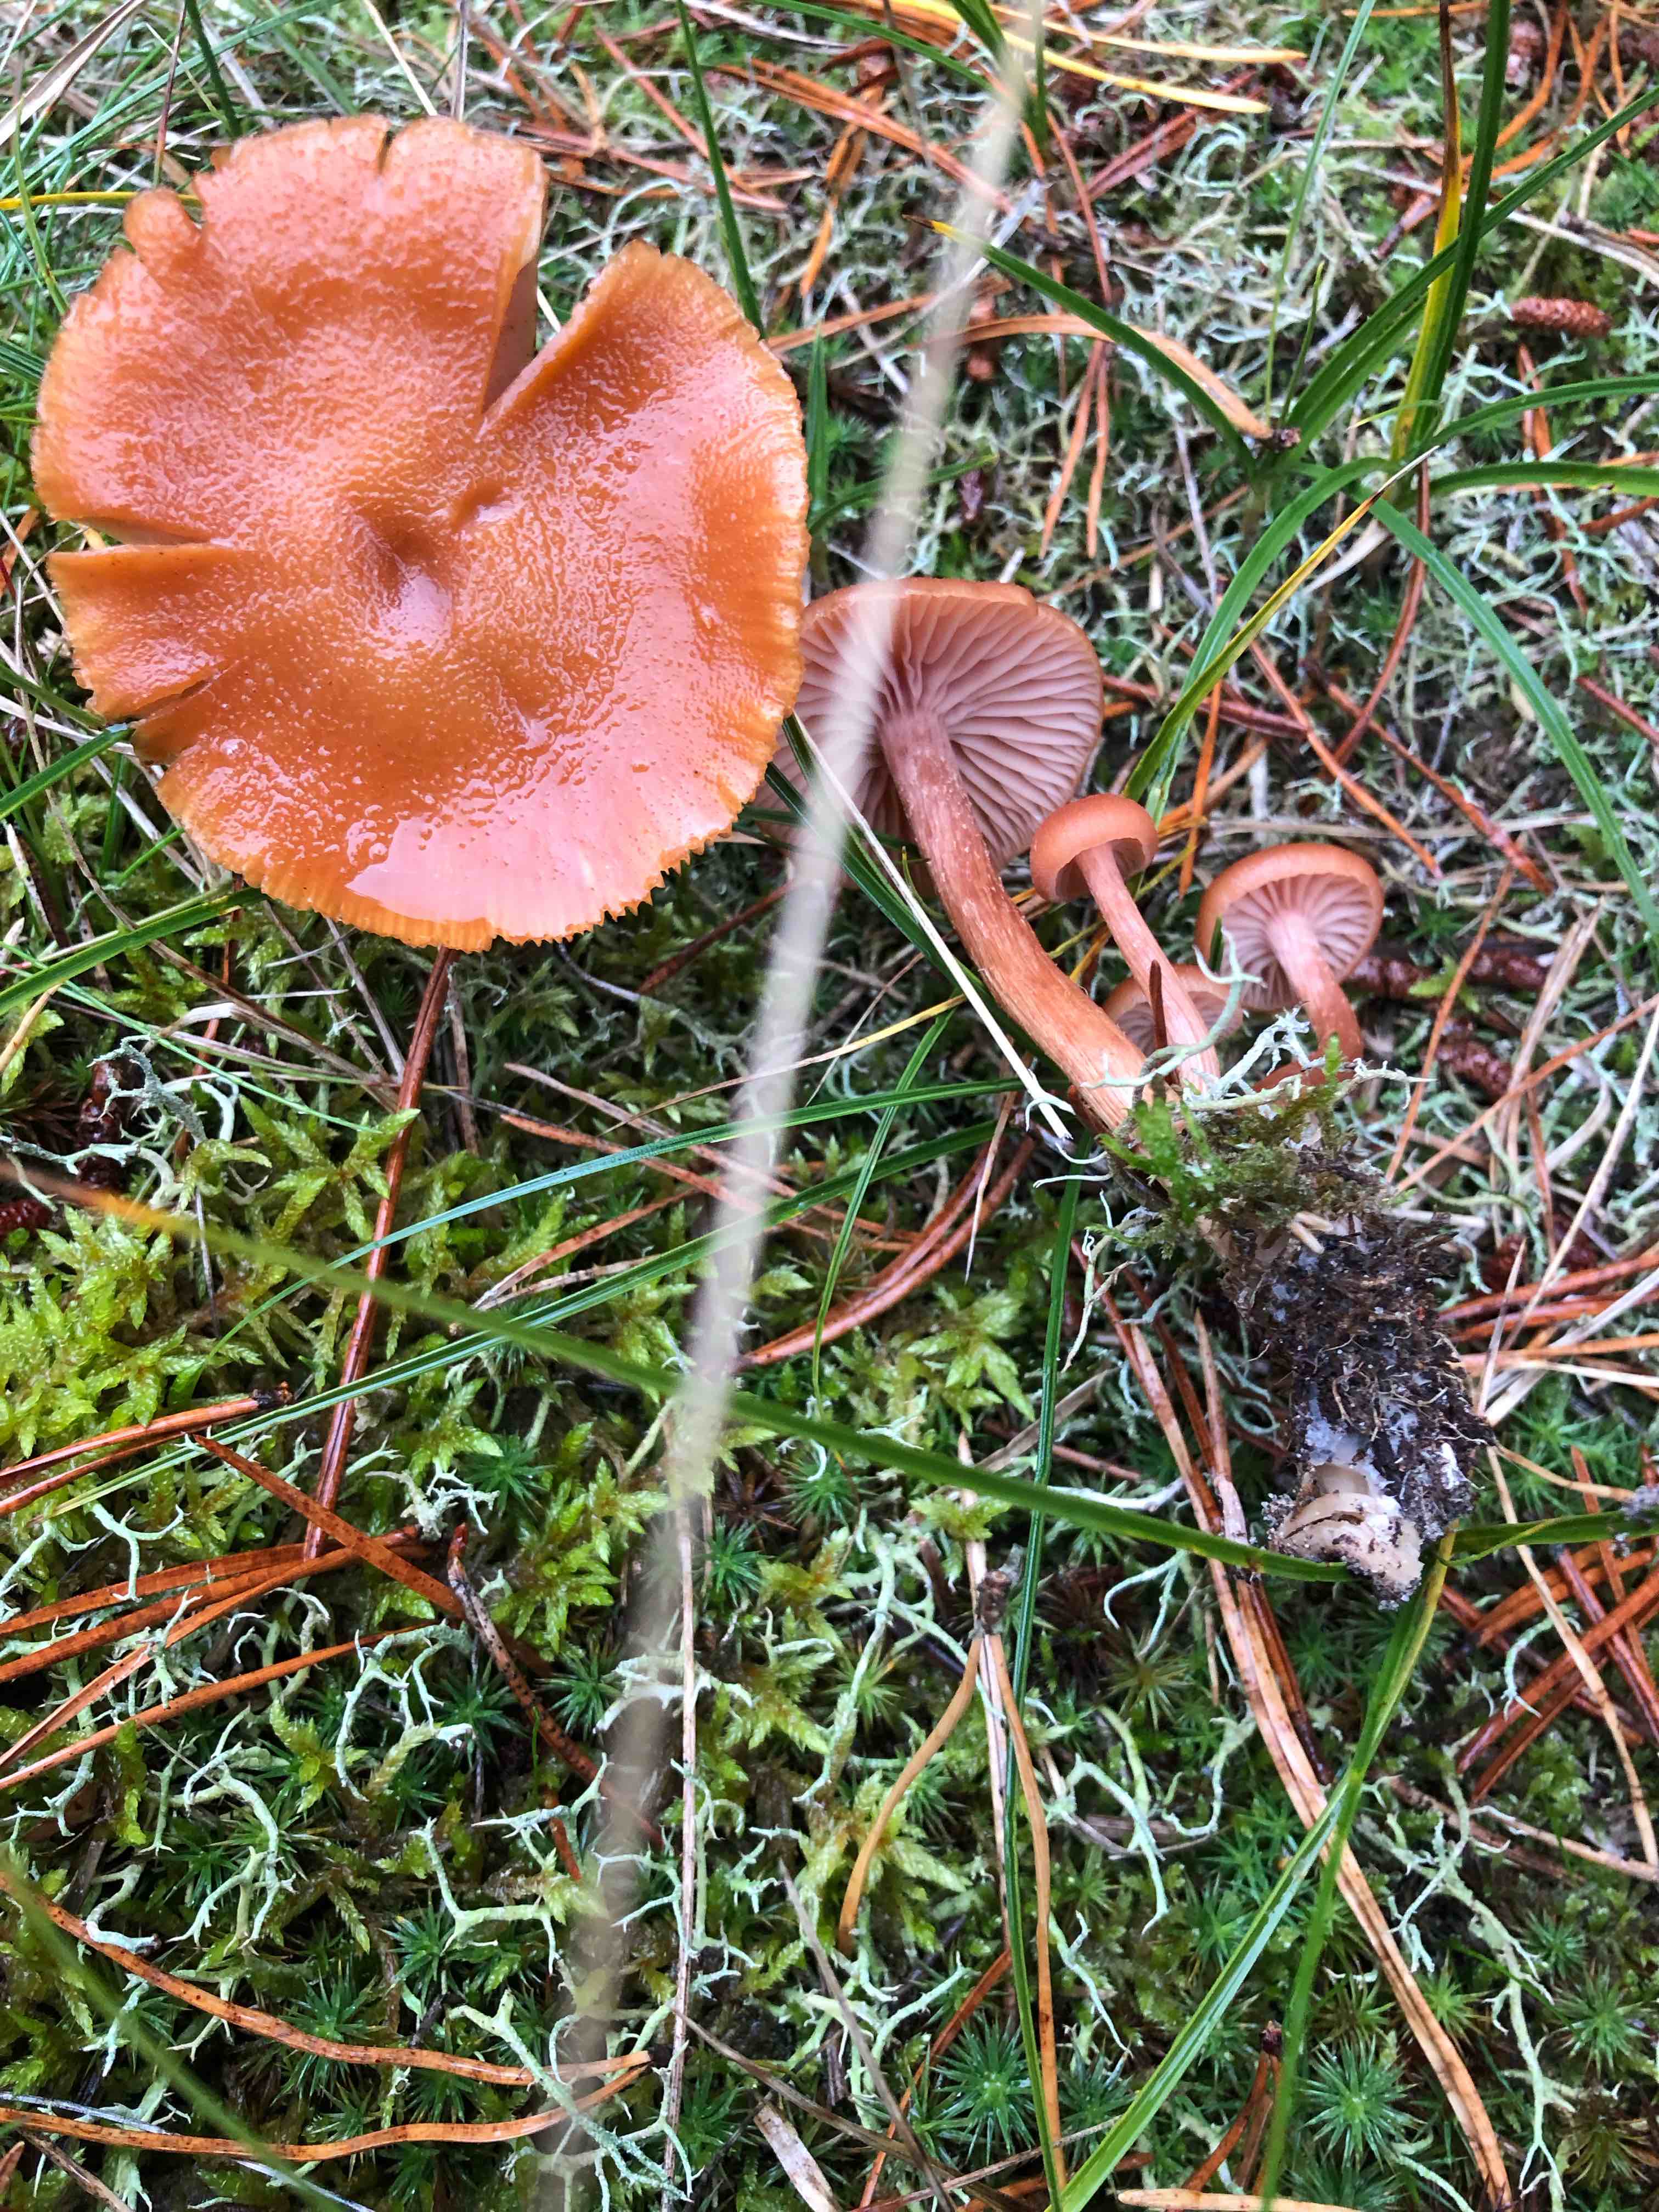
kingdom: Fungi
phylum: Basidiomycota
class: Agaricomycetes
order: Agaricales
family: Hydnangiaceae
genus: Laccaria
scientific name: Laccaria bicolor
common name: tvefarvet ametysthat
